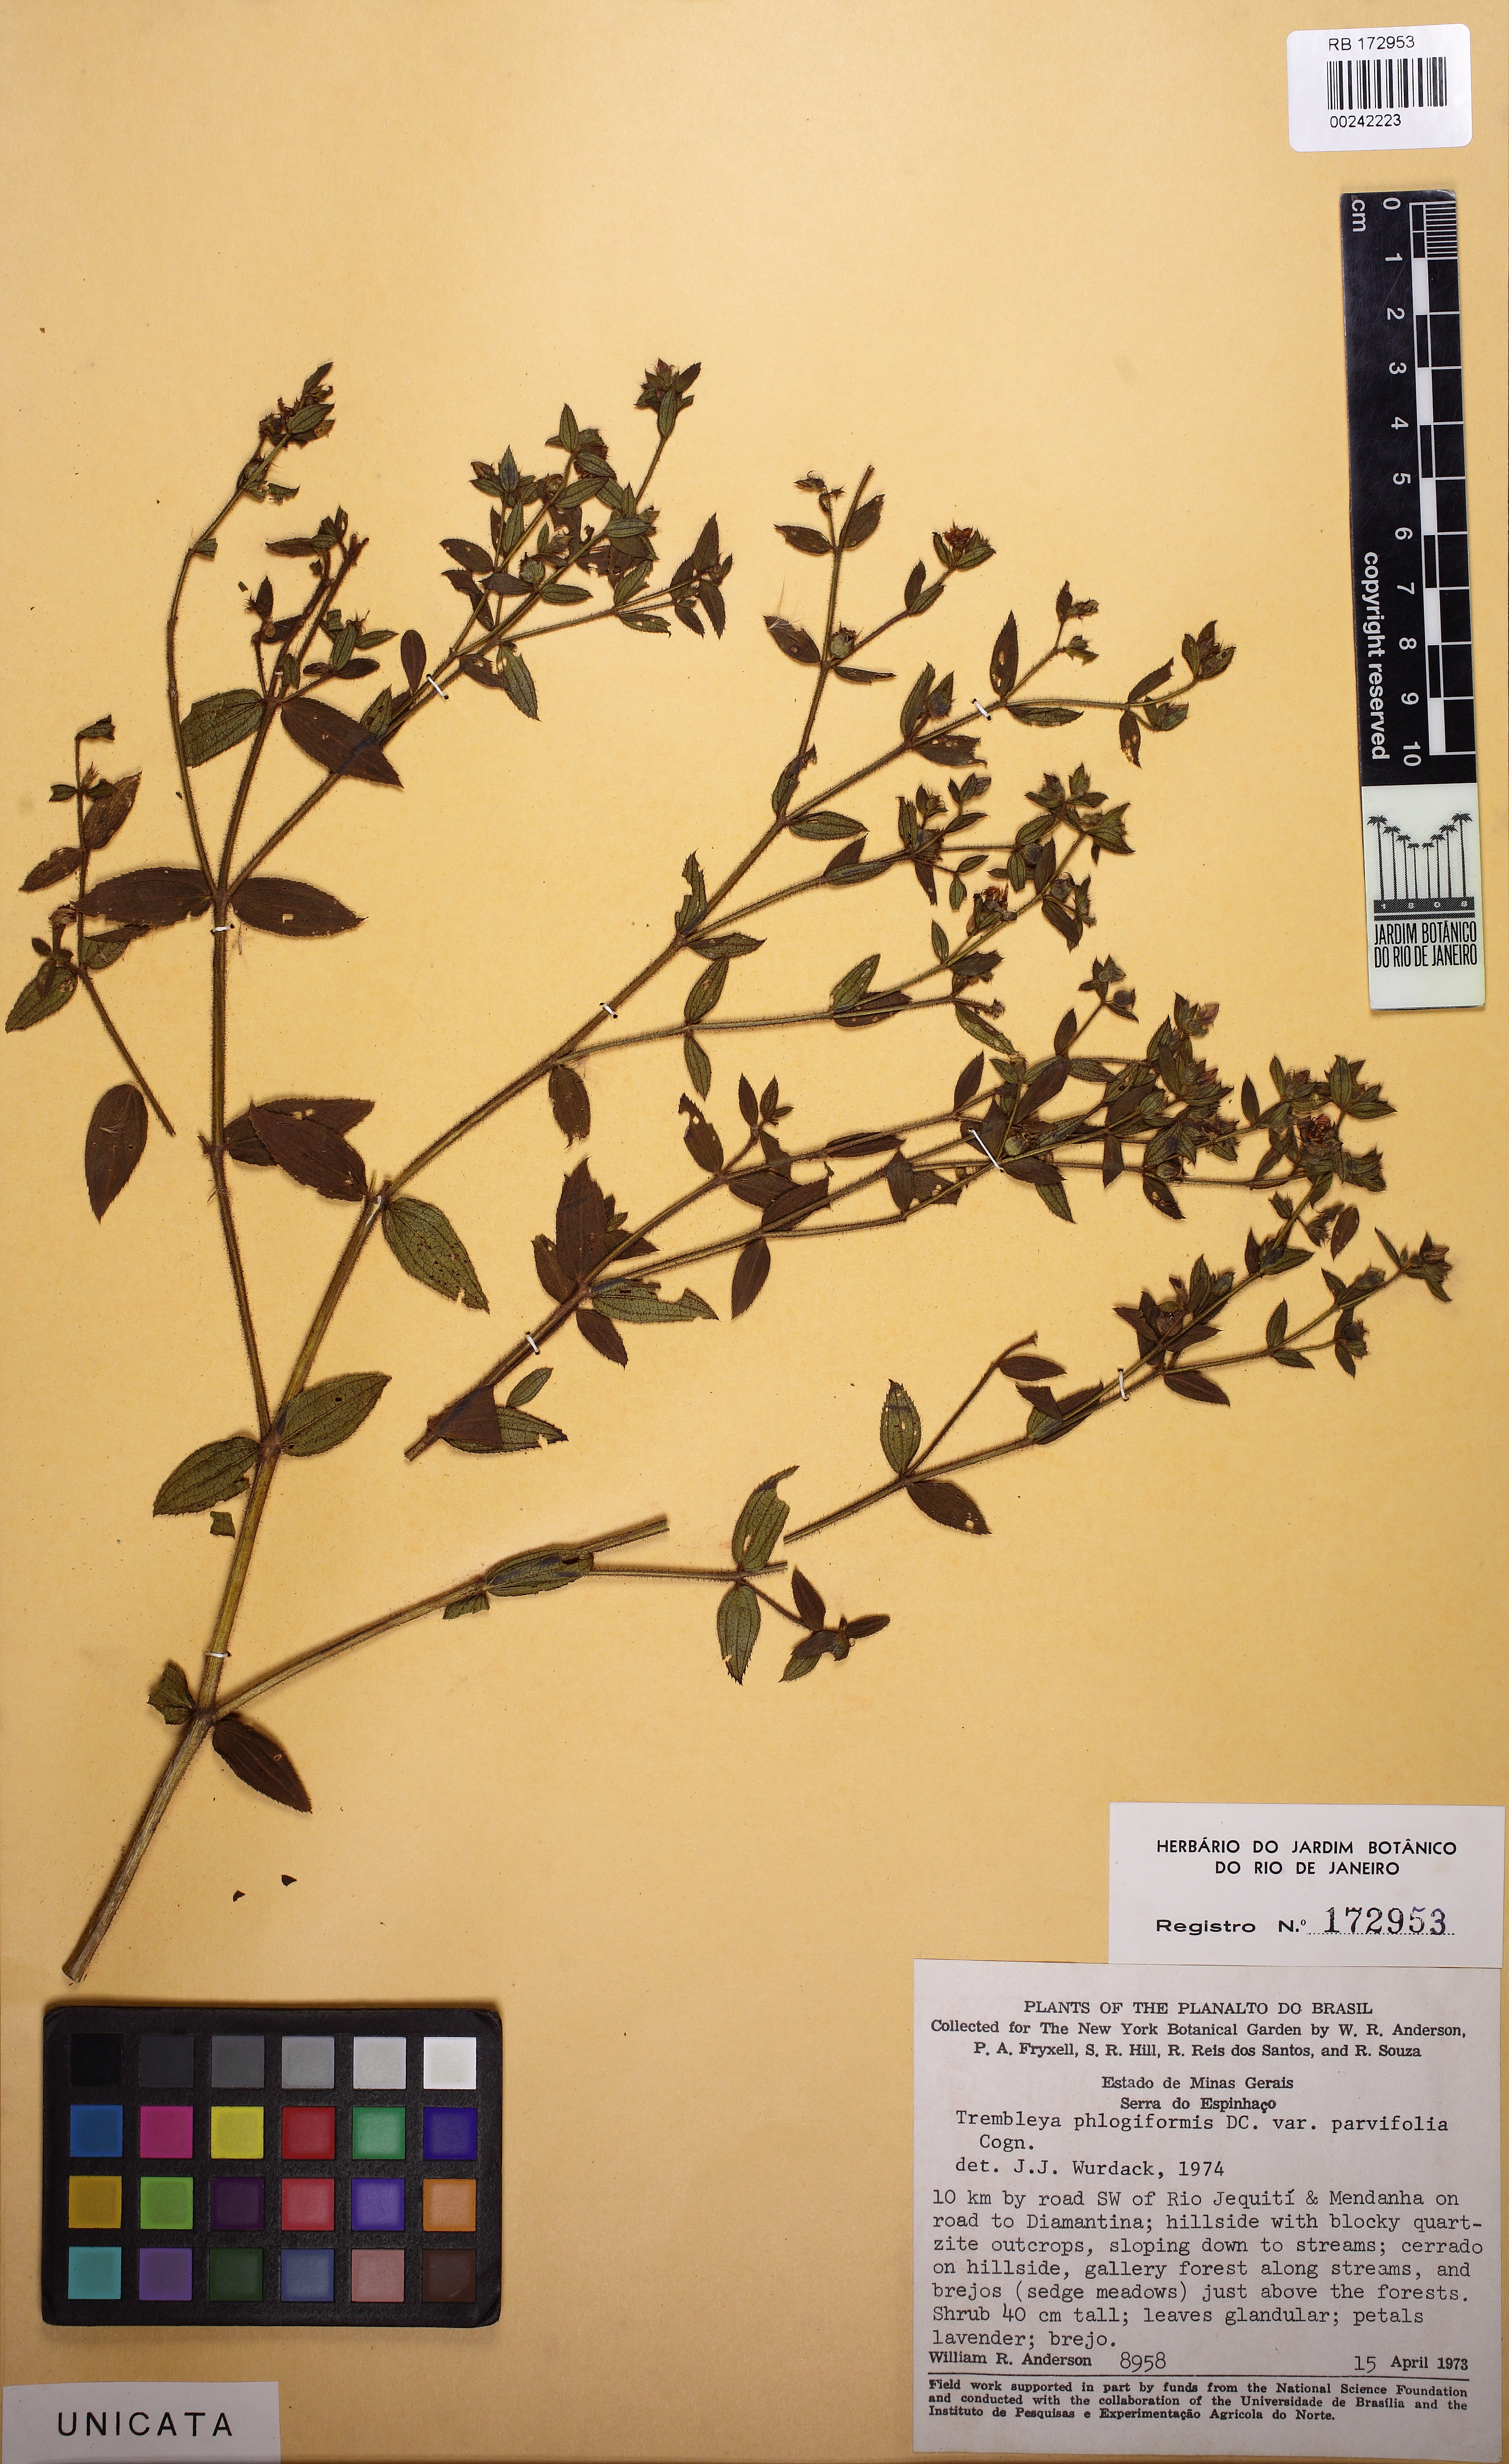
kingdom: Plantae
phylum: Tracheophyta
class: Magnoliopsida
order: Myrtales
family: Melastomataceae
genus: Microlicia
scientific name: Microlicia phlogiformis
